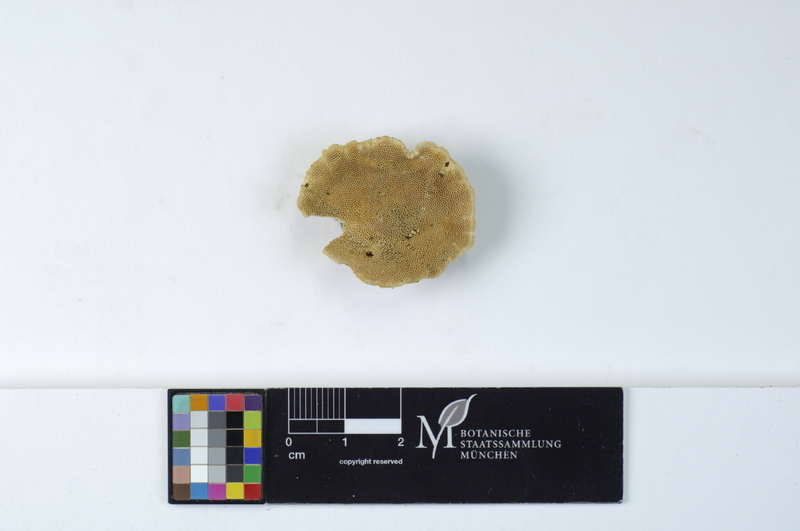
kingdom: Fungi
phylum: Basidiomycota
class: Agaricomycetes
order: Polyporales
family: Polyporaceae
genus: Trametes
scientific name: Trametes hirsuta
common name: Hairy bracket
